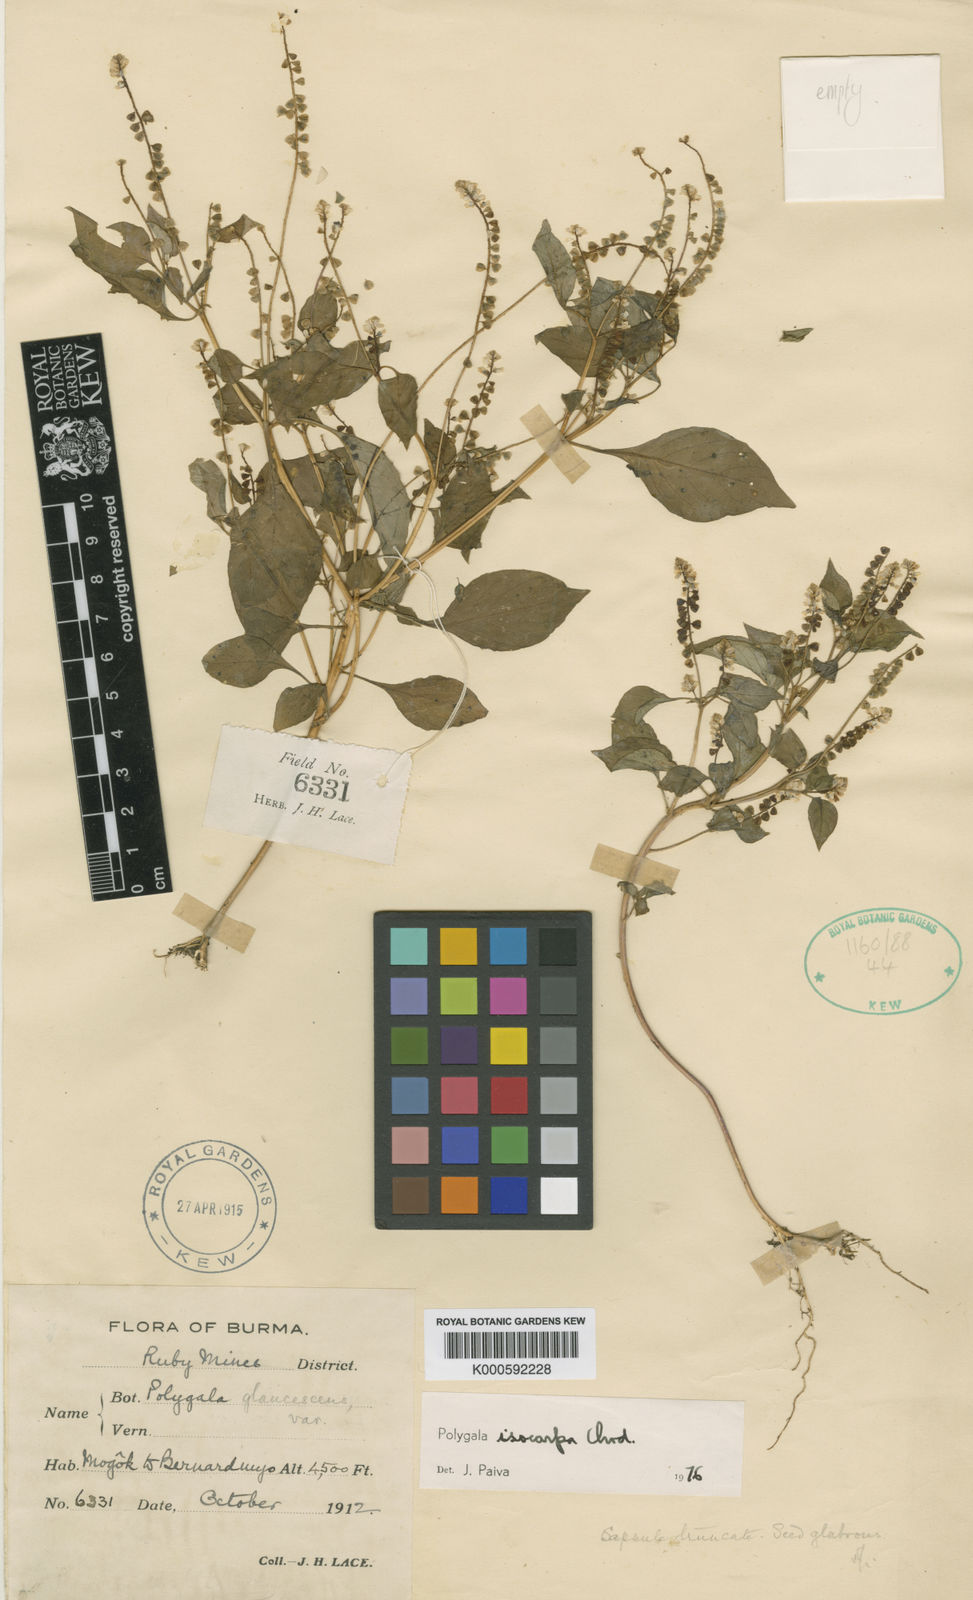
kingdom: Plantae
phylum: Tracheophyta
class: Magnoliopsida
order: Fabales
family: Polygalaceae
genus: Polygala
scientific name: Polygala isocarpa
